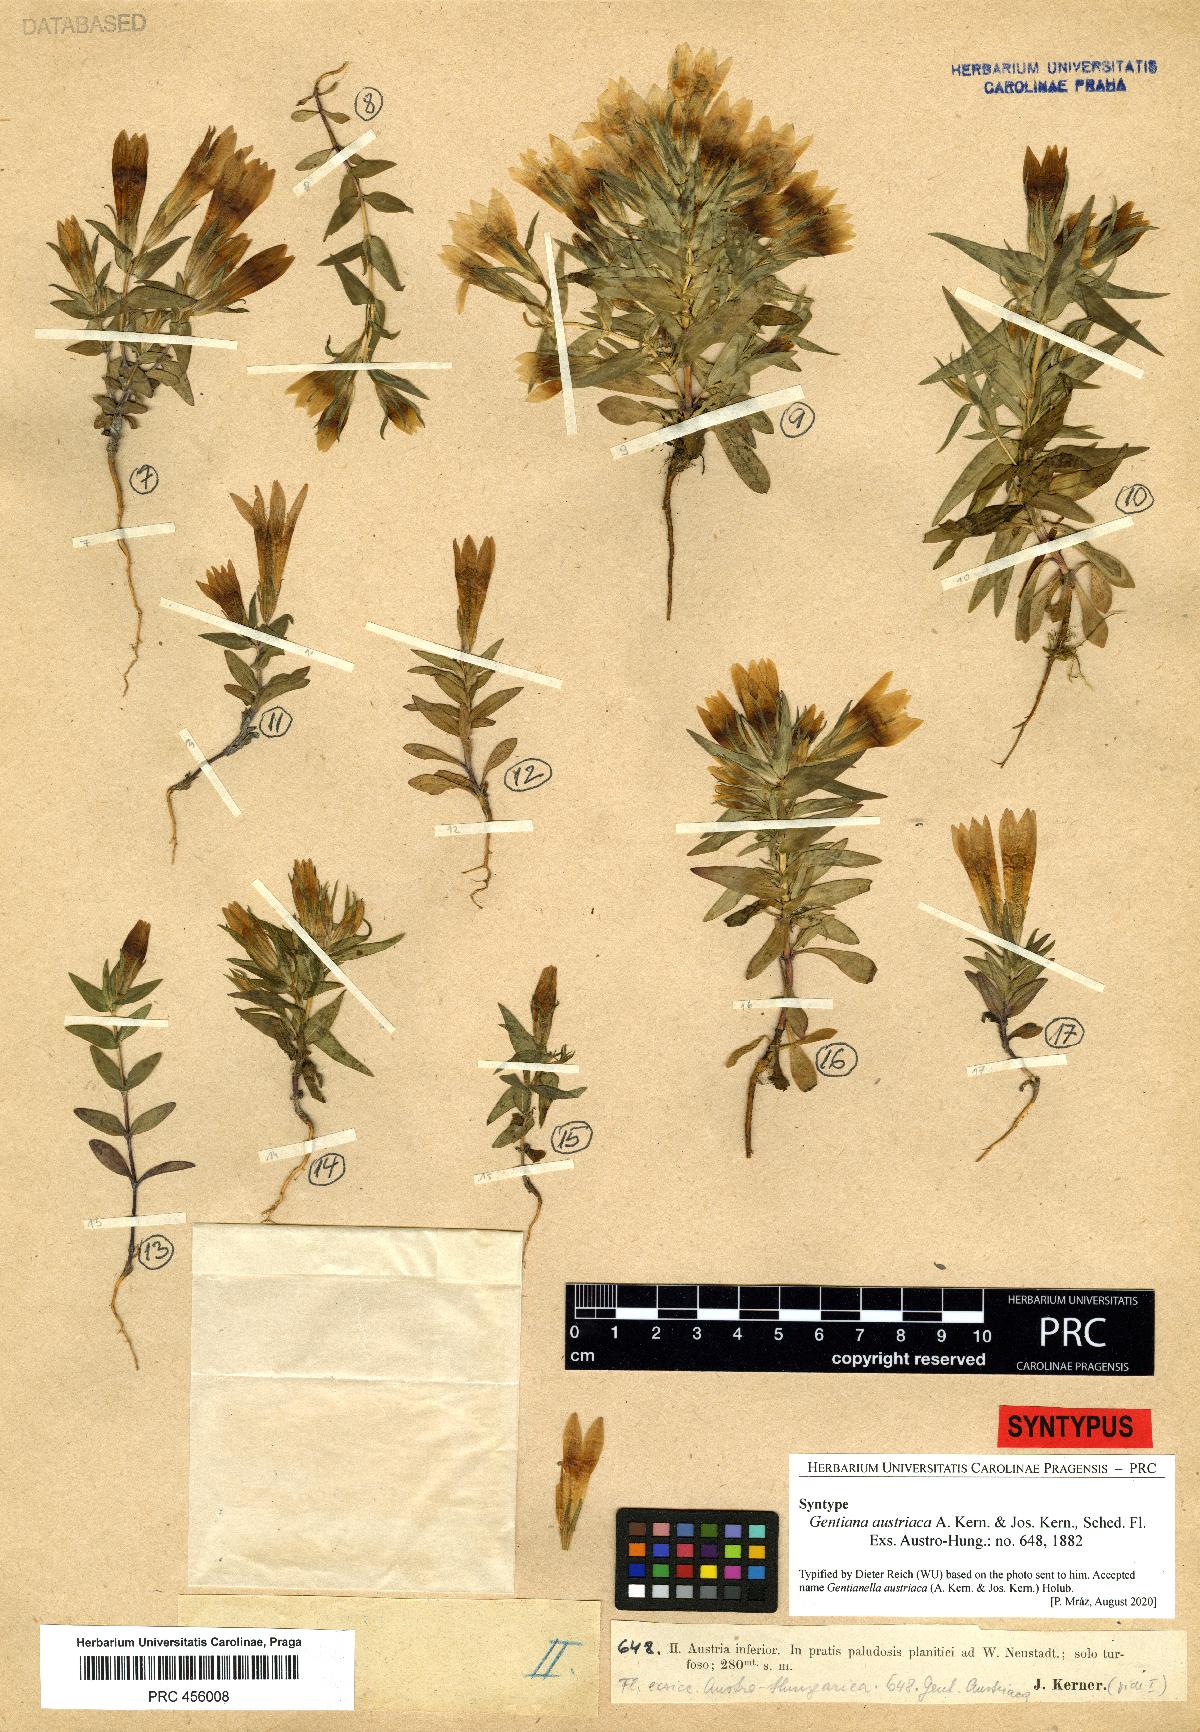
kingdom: Plantae
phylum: Tracheophyta
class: Magnoliopsida
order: Gentianales
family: Gentianaceae
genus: Gentianella
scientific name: Gentianella austriaca
